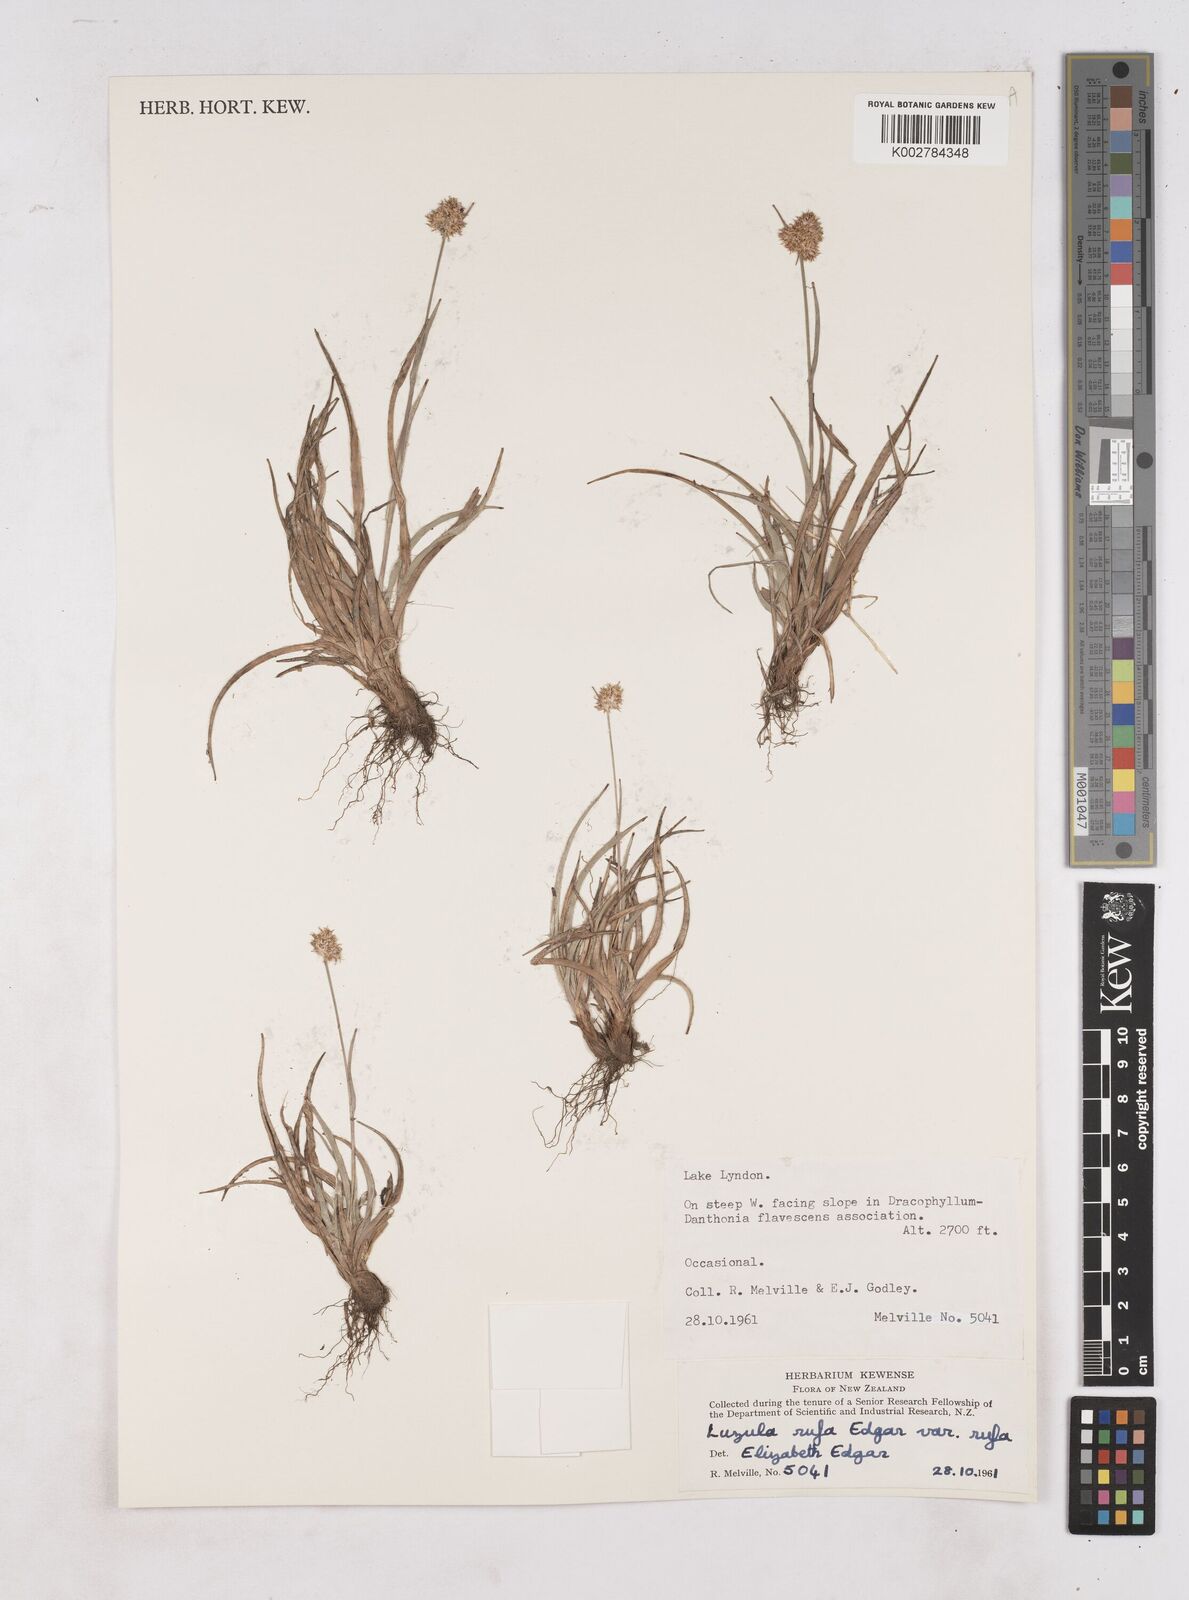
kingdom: Plantae
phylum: Tracheophyta
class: Liliopsida
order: Poales
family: Juncaceae
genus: Luzula
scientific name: Luzula rufa
